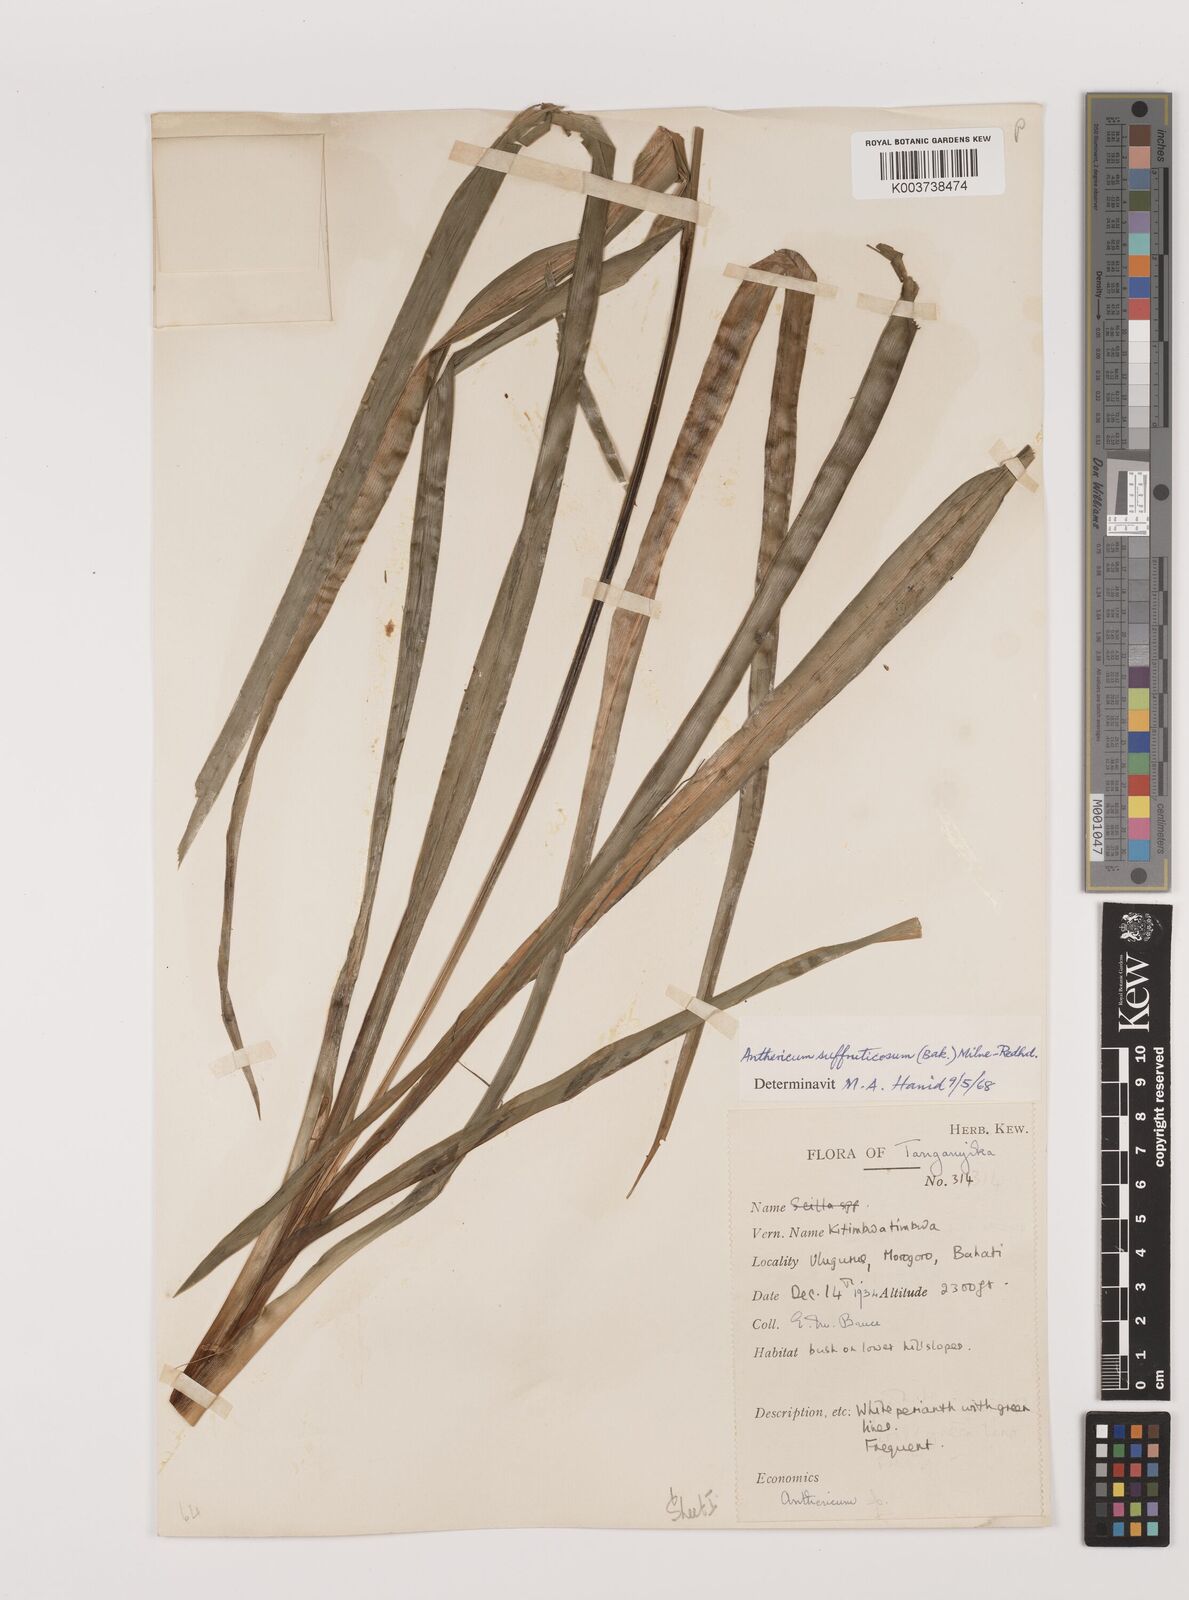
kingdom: Plantae
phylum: Tracheophyta
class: Liliopsida
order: Asparagales
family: Asparagaceae
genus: Chlorophytum
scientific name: Chlorophytum suffruticosum
